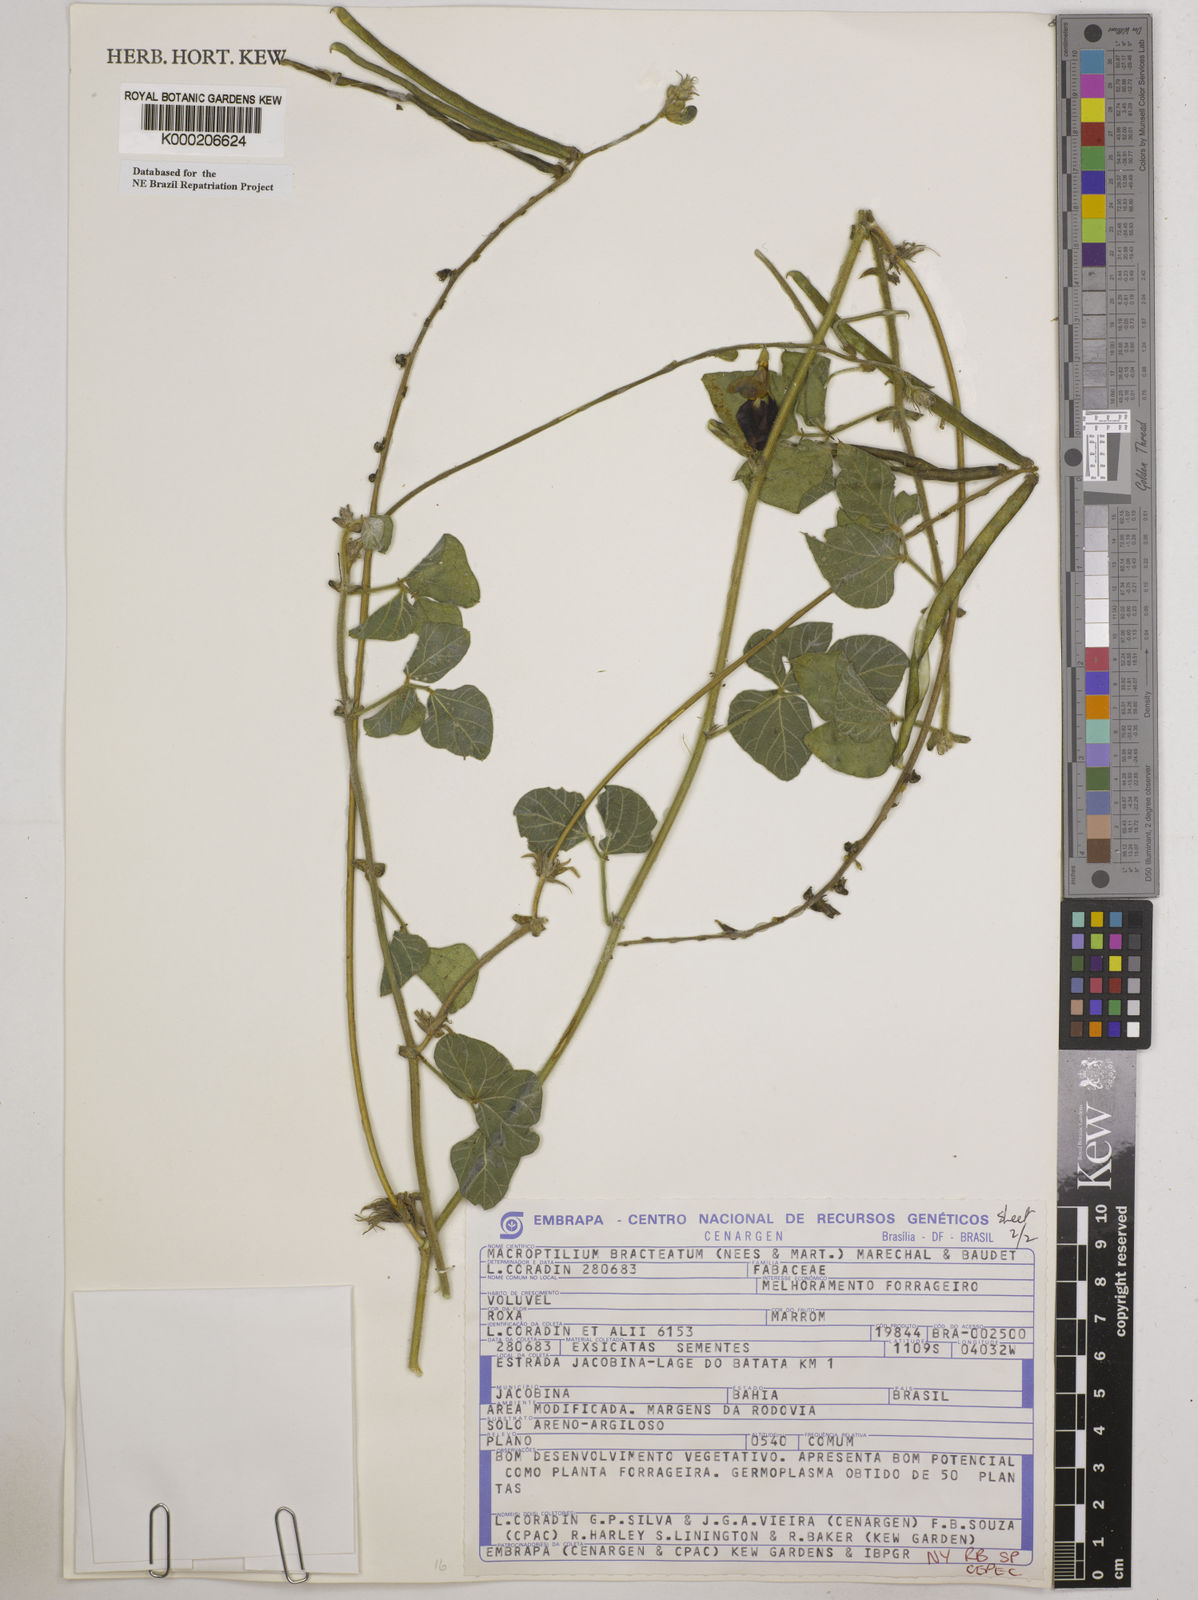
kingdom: Plantae
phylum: Tracheophyta
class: Magnoliopsida
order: Fabales
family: Fabaceae
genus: Macroptilium
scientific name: Macroptilium
